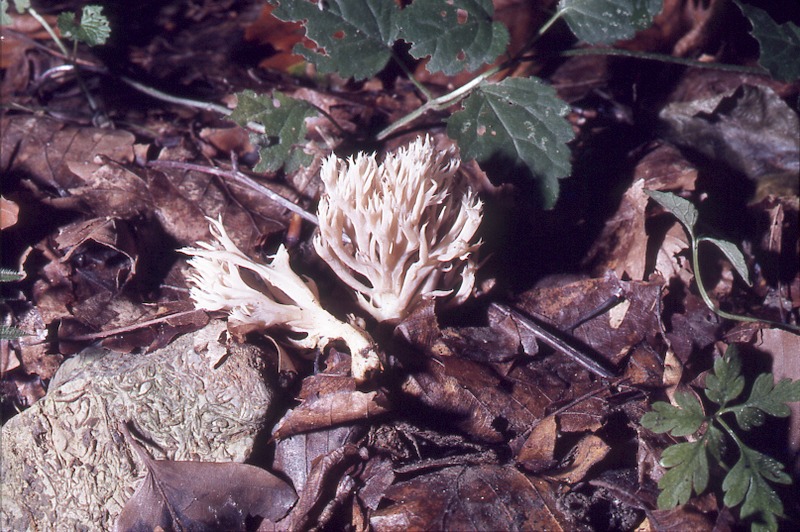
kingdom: Fungi
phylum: Basidiomycota
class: Agaricomycetes
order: Cantharellales
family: Hydnaceae
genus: Clavulina
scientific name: Clavulina coralloides
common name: Crested coral
